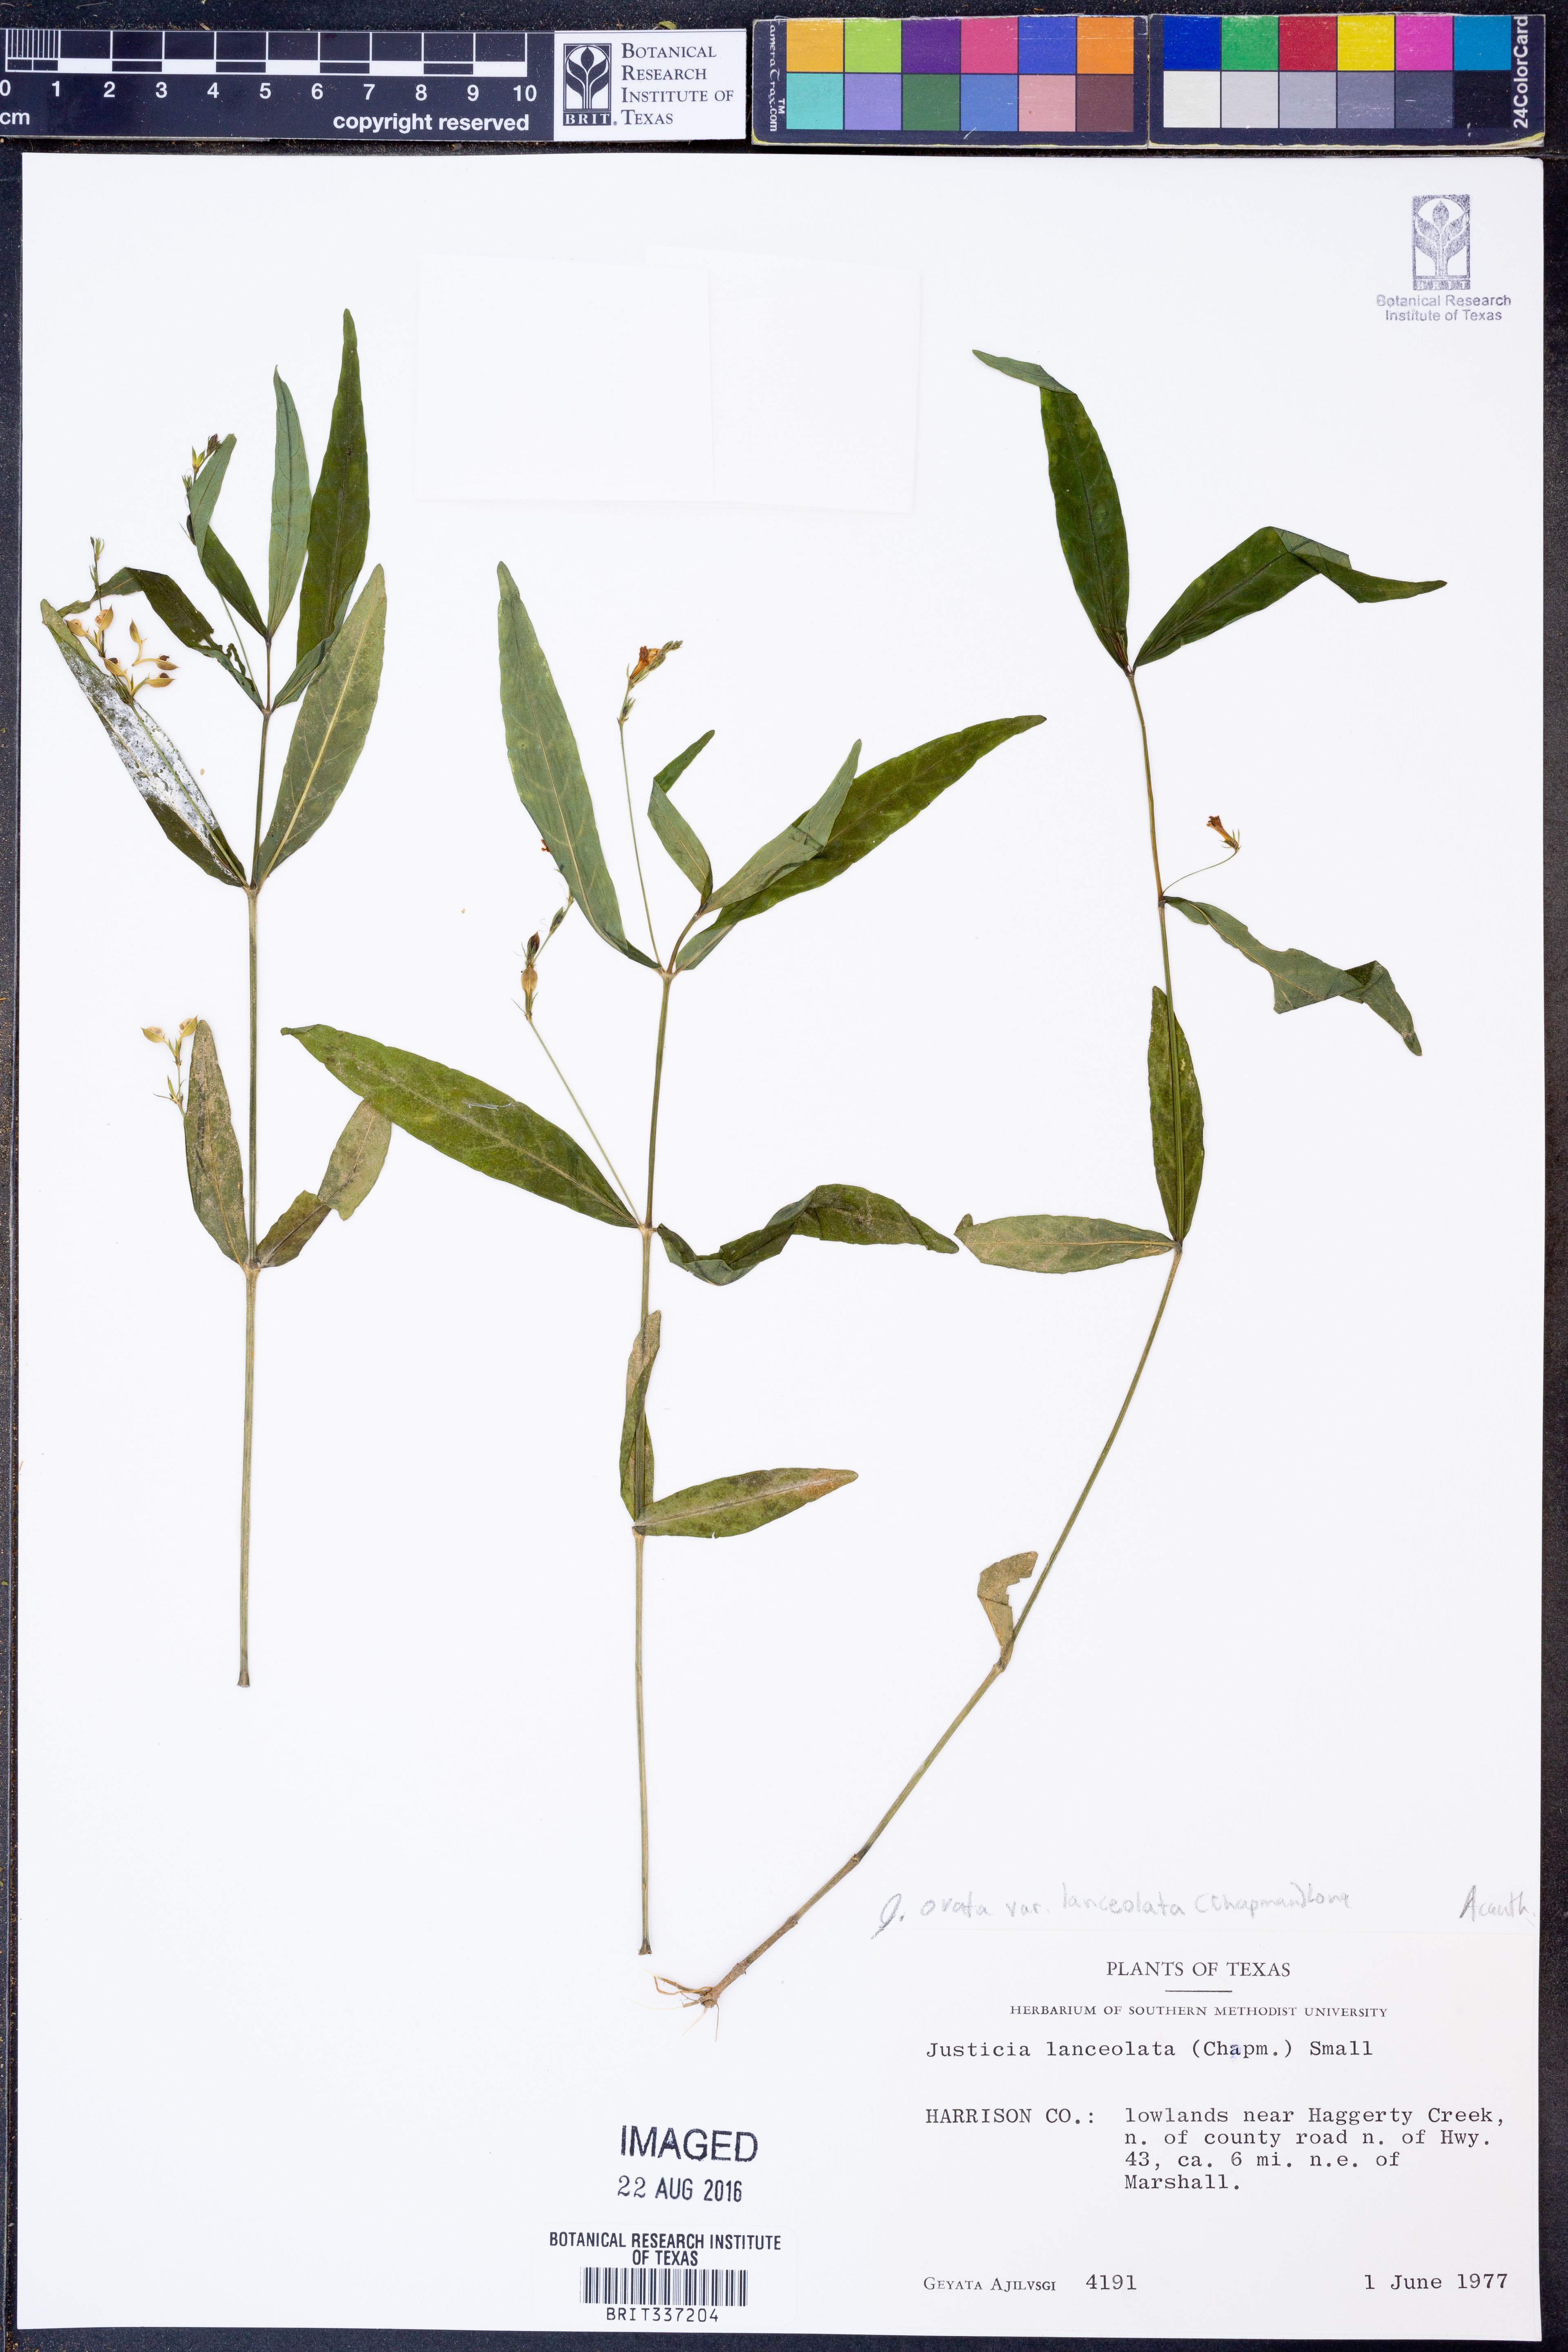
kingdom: Plantae
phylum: Tracheophyta
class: Magnoliopsida
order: Lamiales
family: Acanthaceae
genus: Justicia
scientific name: Justicia lanceolata
